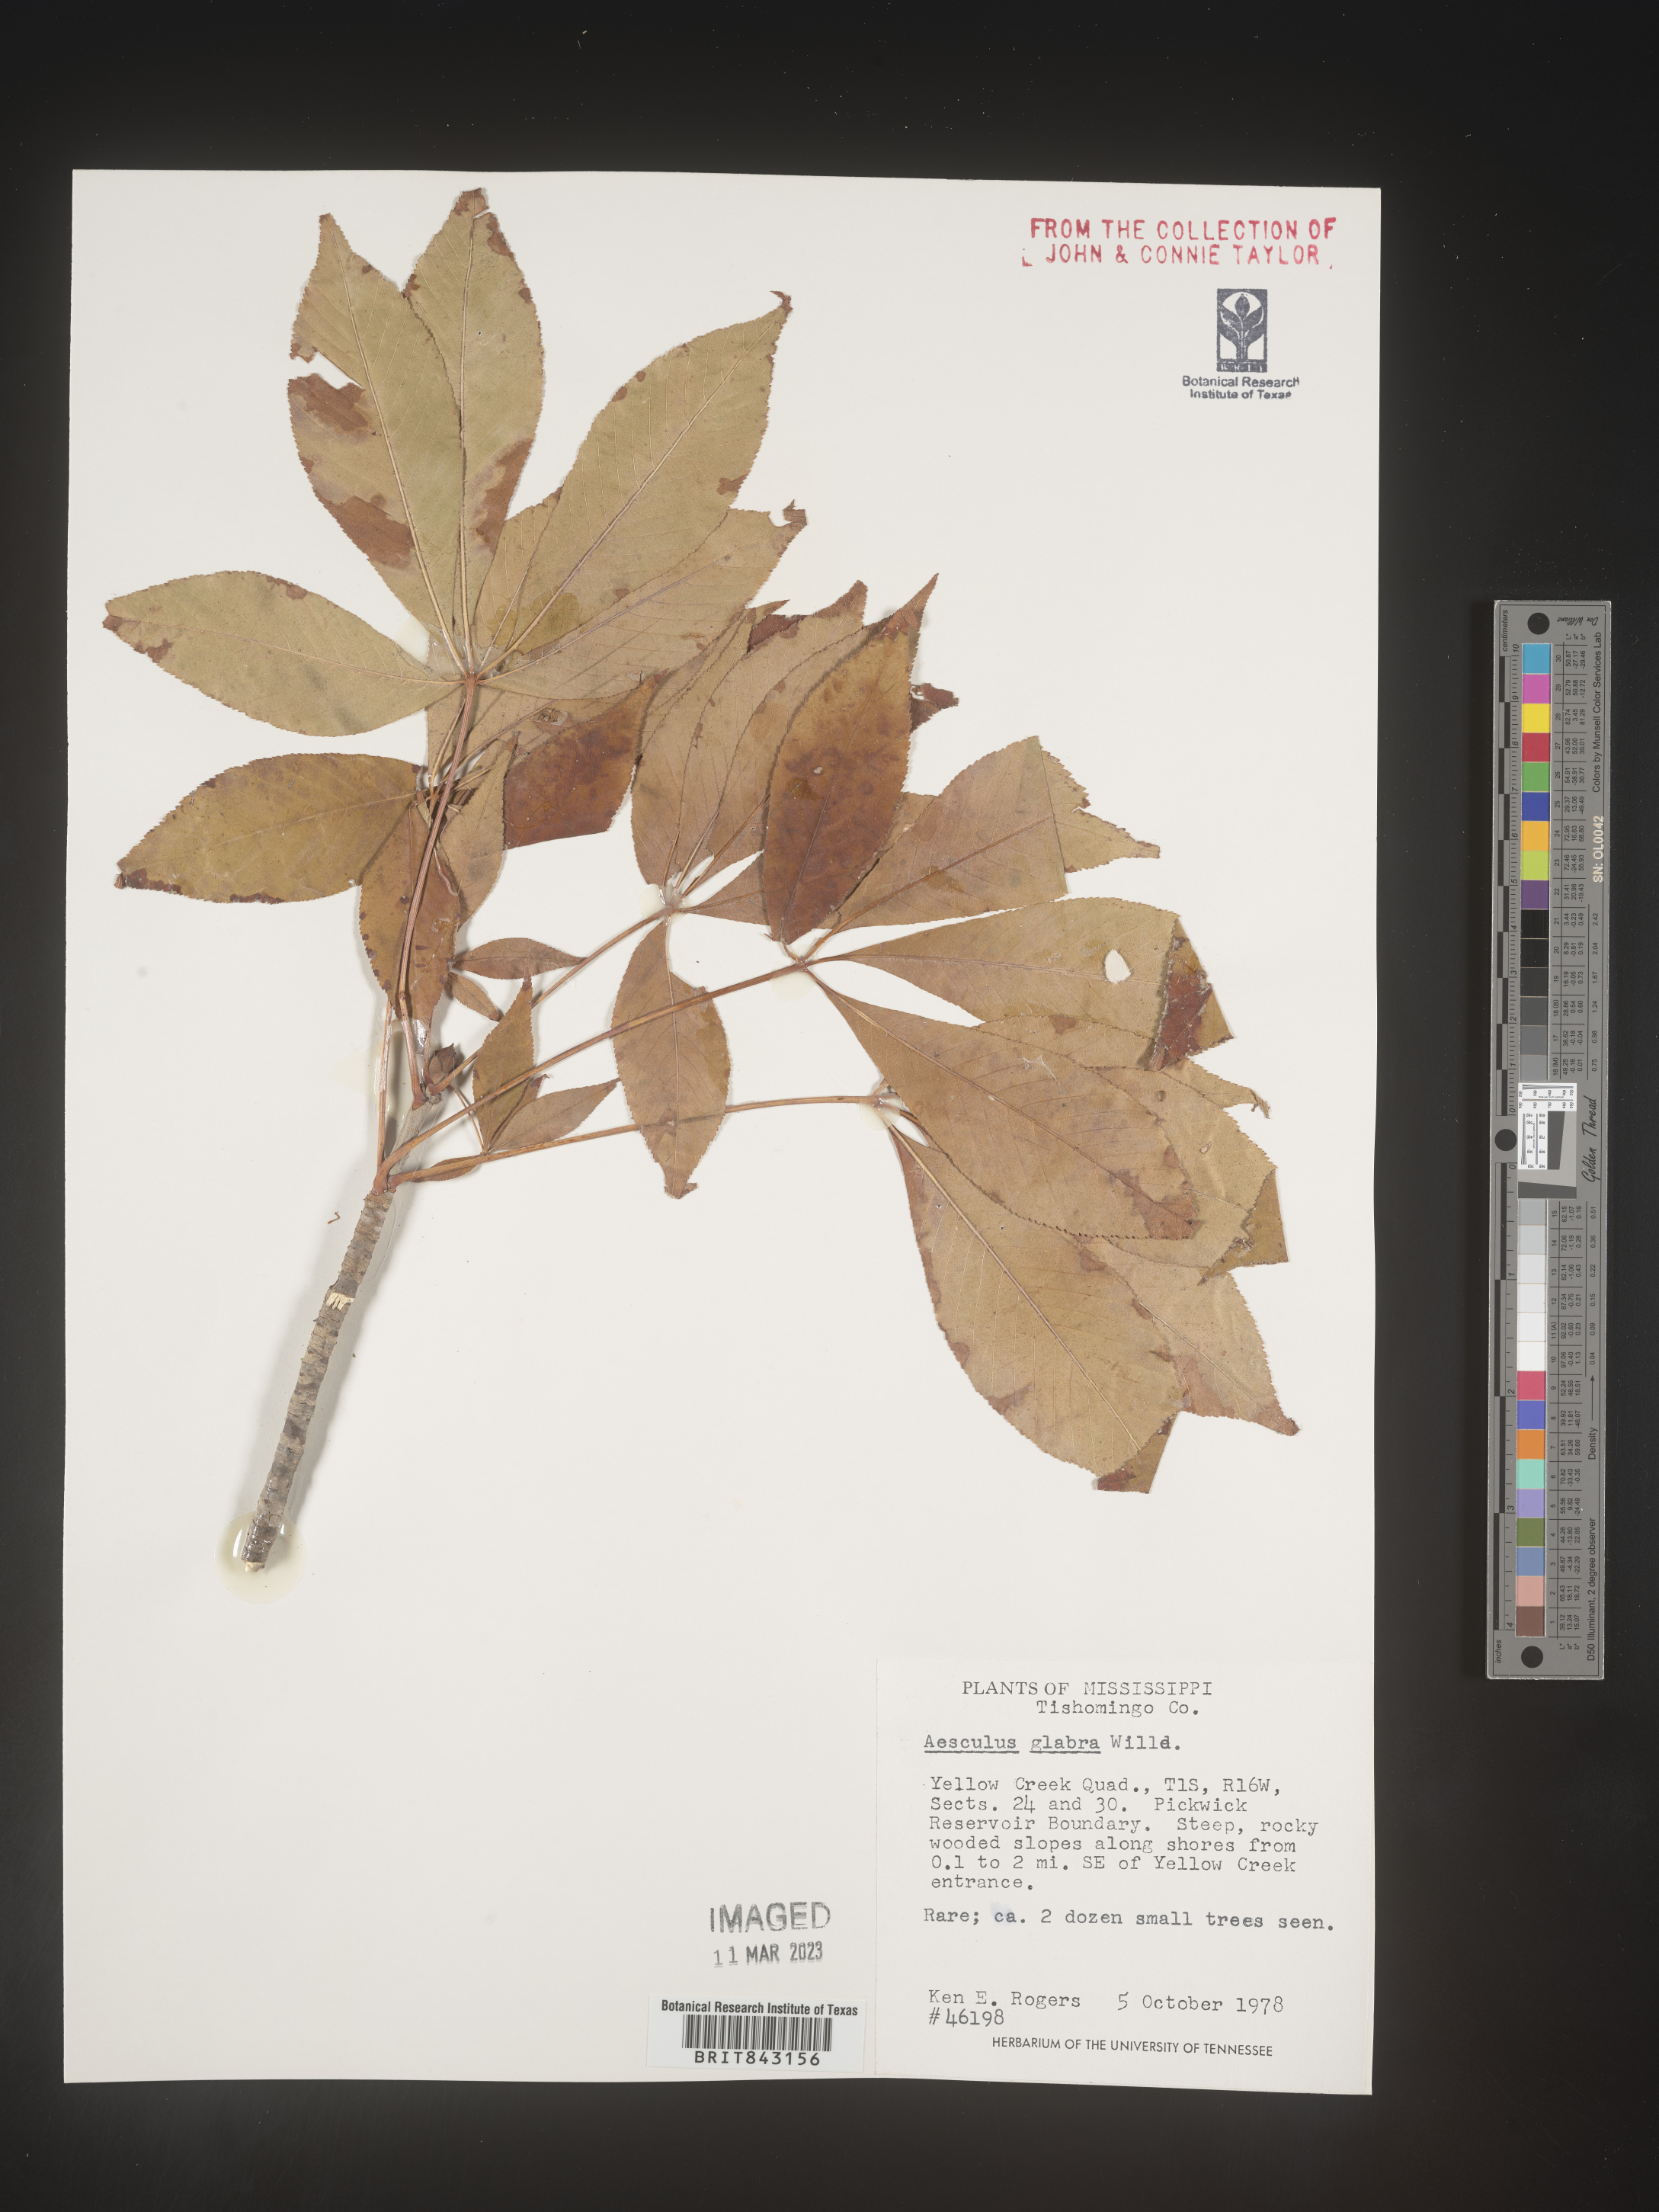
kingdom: Plantae
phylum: Tracheophyta
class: Magnoliopsida
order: Sapindales
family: Sapindaceae
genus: Aesculus
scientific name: Aesculus glabra
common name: Ohio buckeye
